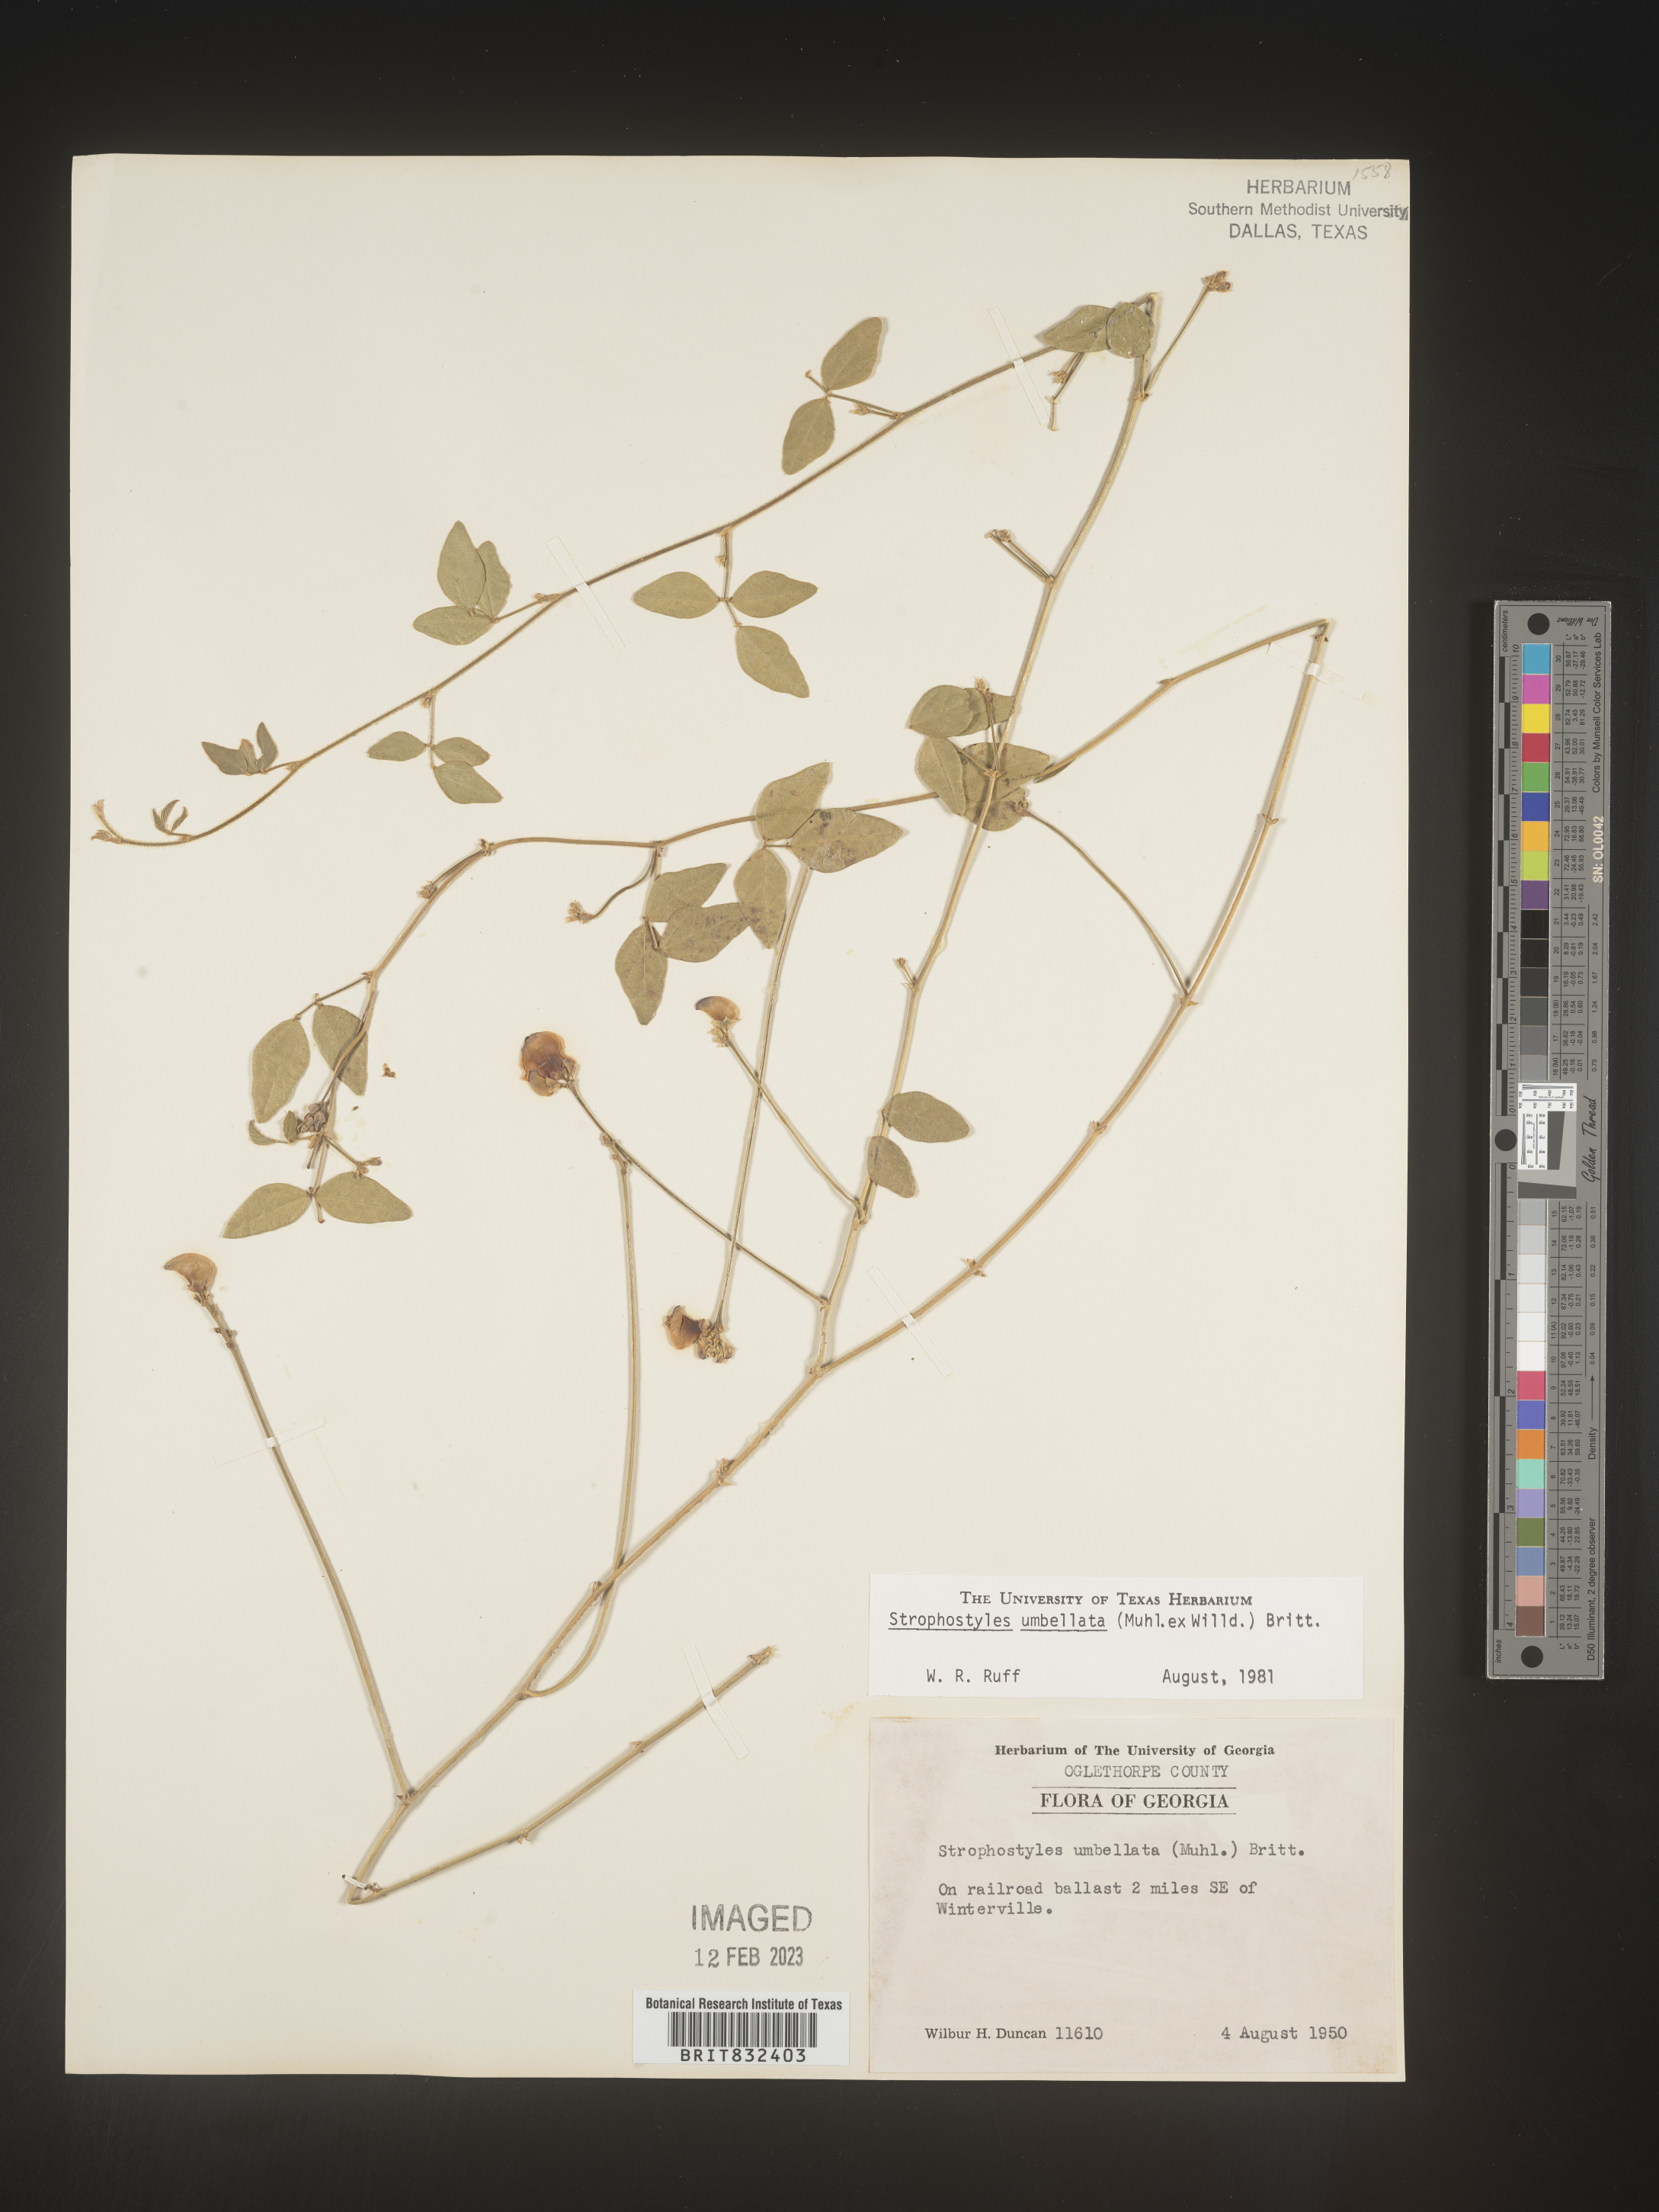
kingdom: Plantae
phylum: Tracheophyta
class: Magnoliopsida
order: Fabales
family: Fabaceae
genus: Strophostyles
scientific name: Strophostyles umbellata
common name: Perennial wild bean
